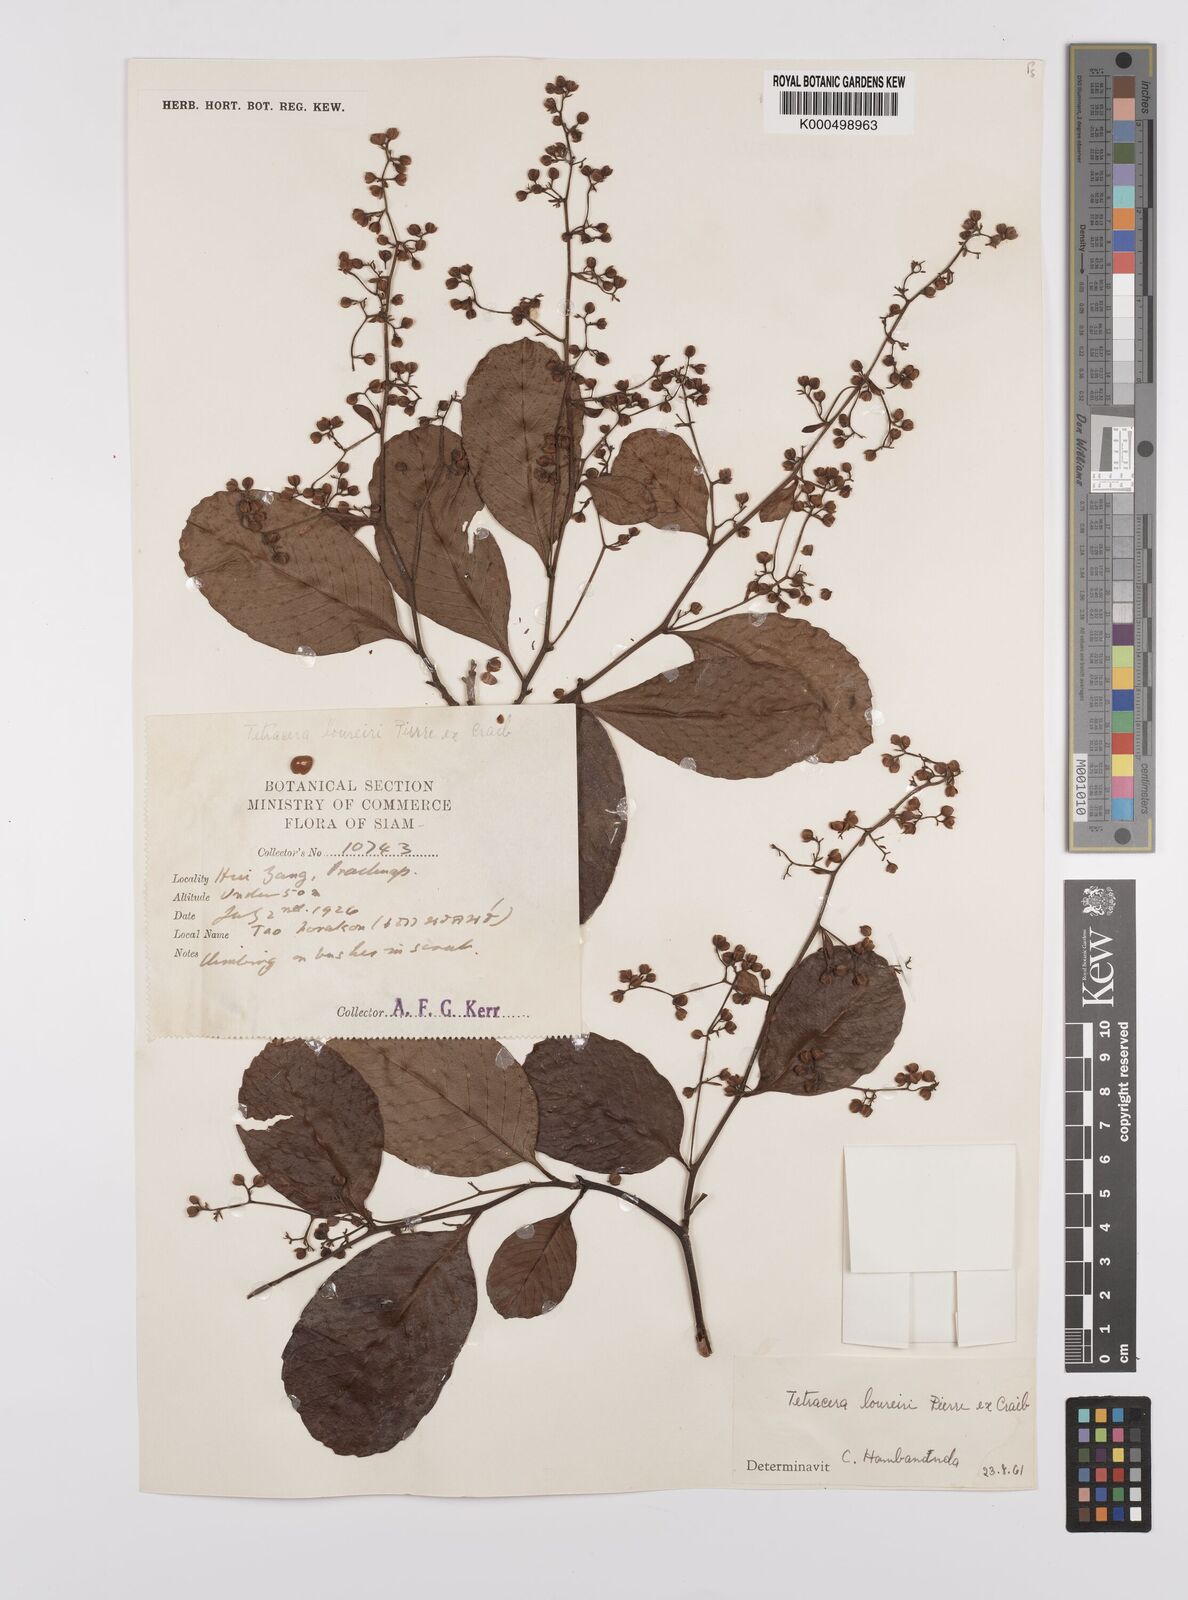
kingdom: Plantae
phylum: Tracheophyta
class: Magnoliopsida
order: Dilleniales
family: Dilleniaceae
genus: Tetracera
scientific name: Tetracera scandens
